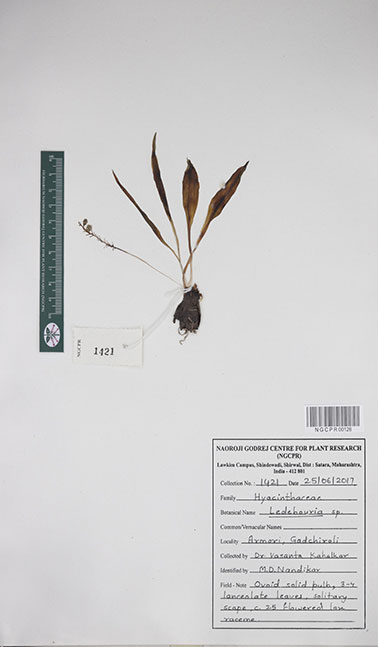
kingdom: Plantae
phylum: Tracheophyta
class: Liliopsida
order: Asparagales
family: Asparagaceae
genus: Ledebouria
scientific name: Ledebouria
